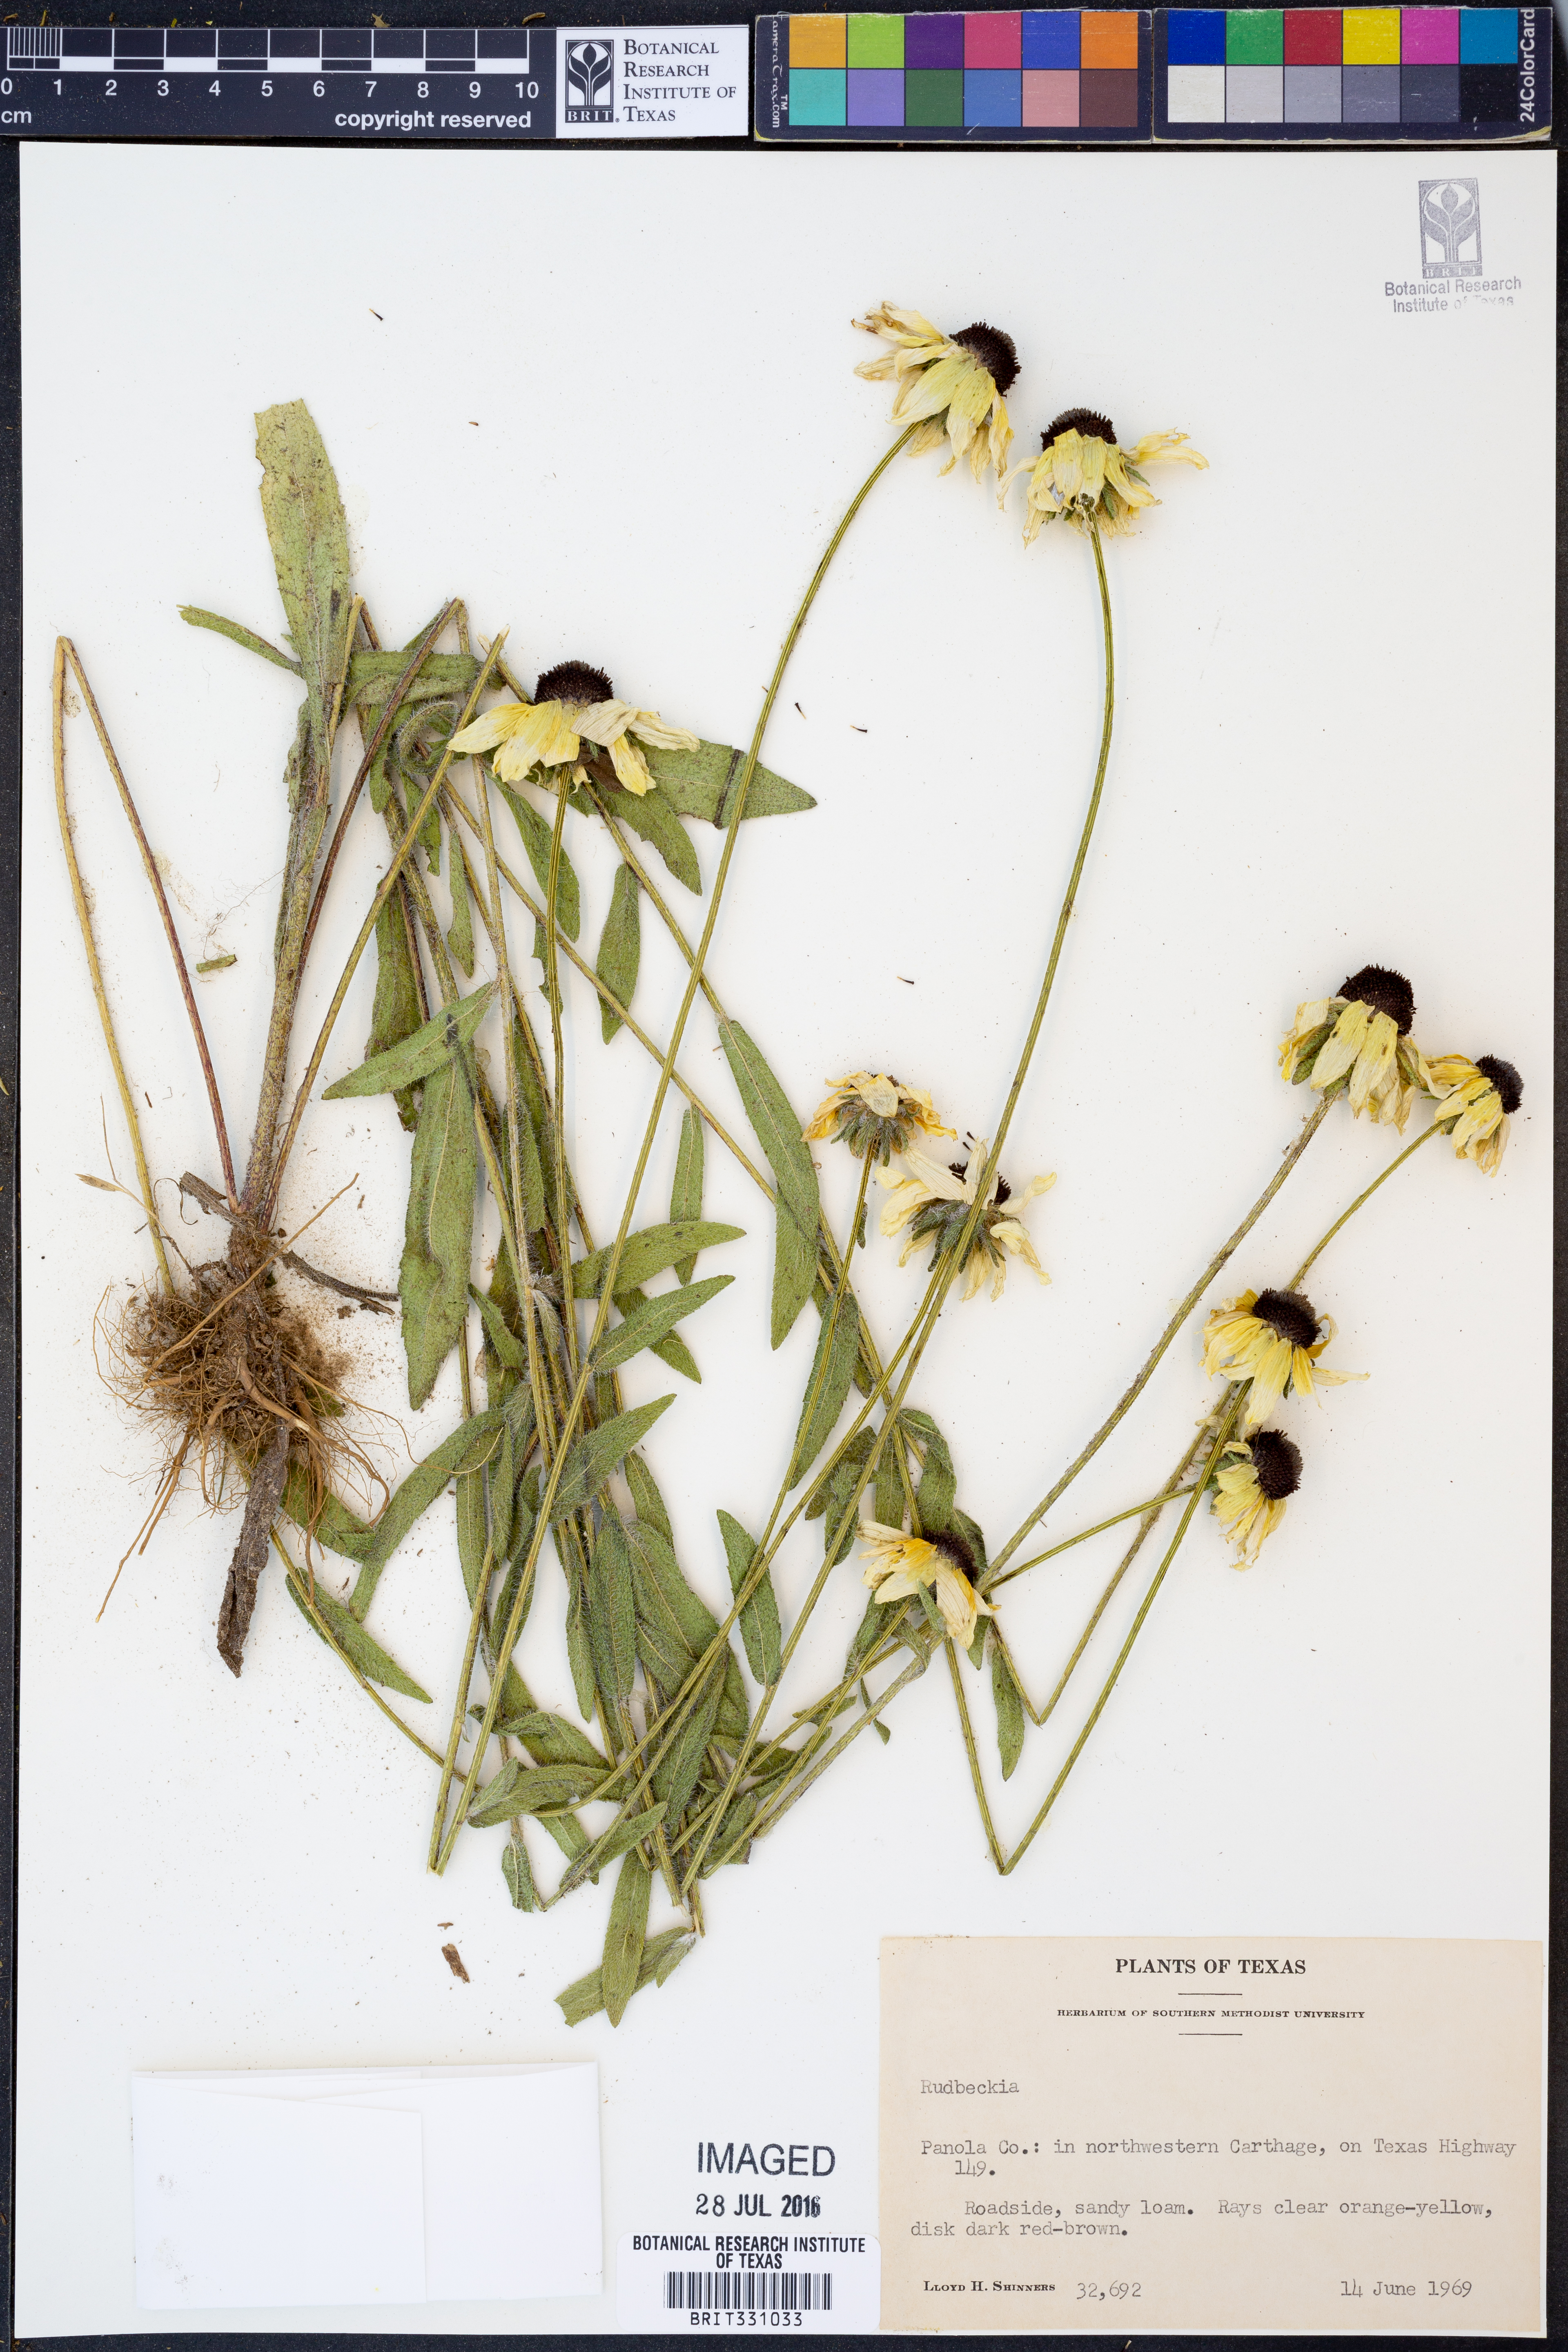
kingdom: Plantae
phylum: Tracheophyta
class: Magnoliopsida
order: Asterales
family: Asteraceae
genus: Rudbeckia
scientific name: Rudbeckia
